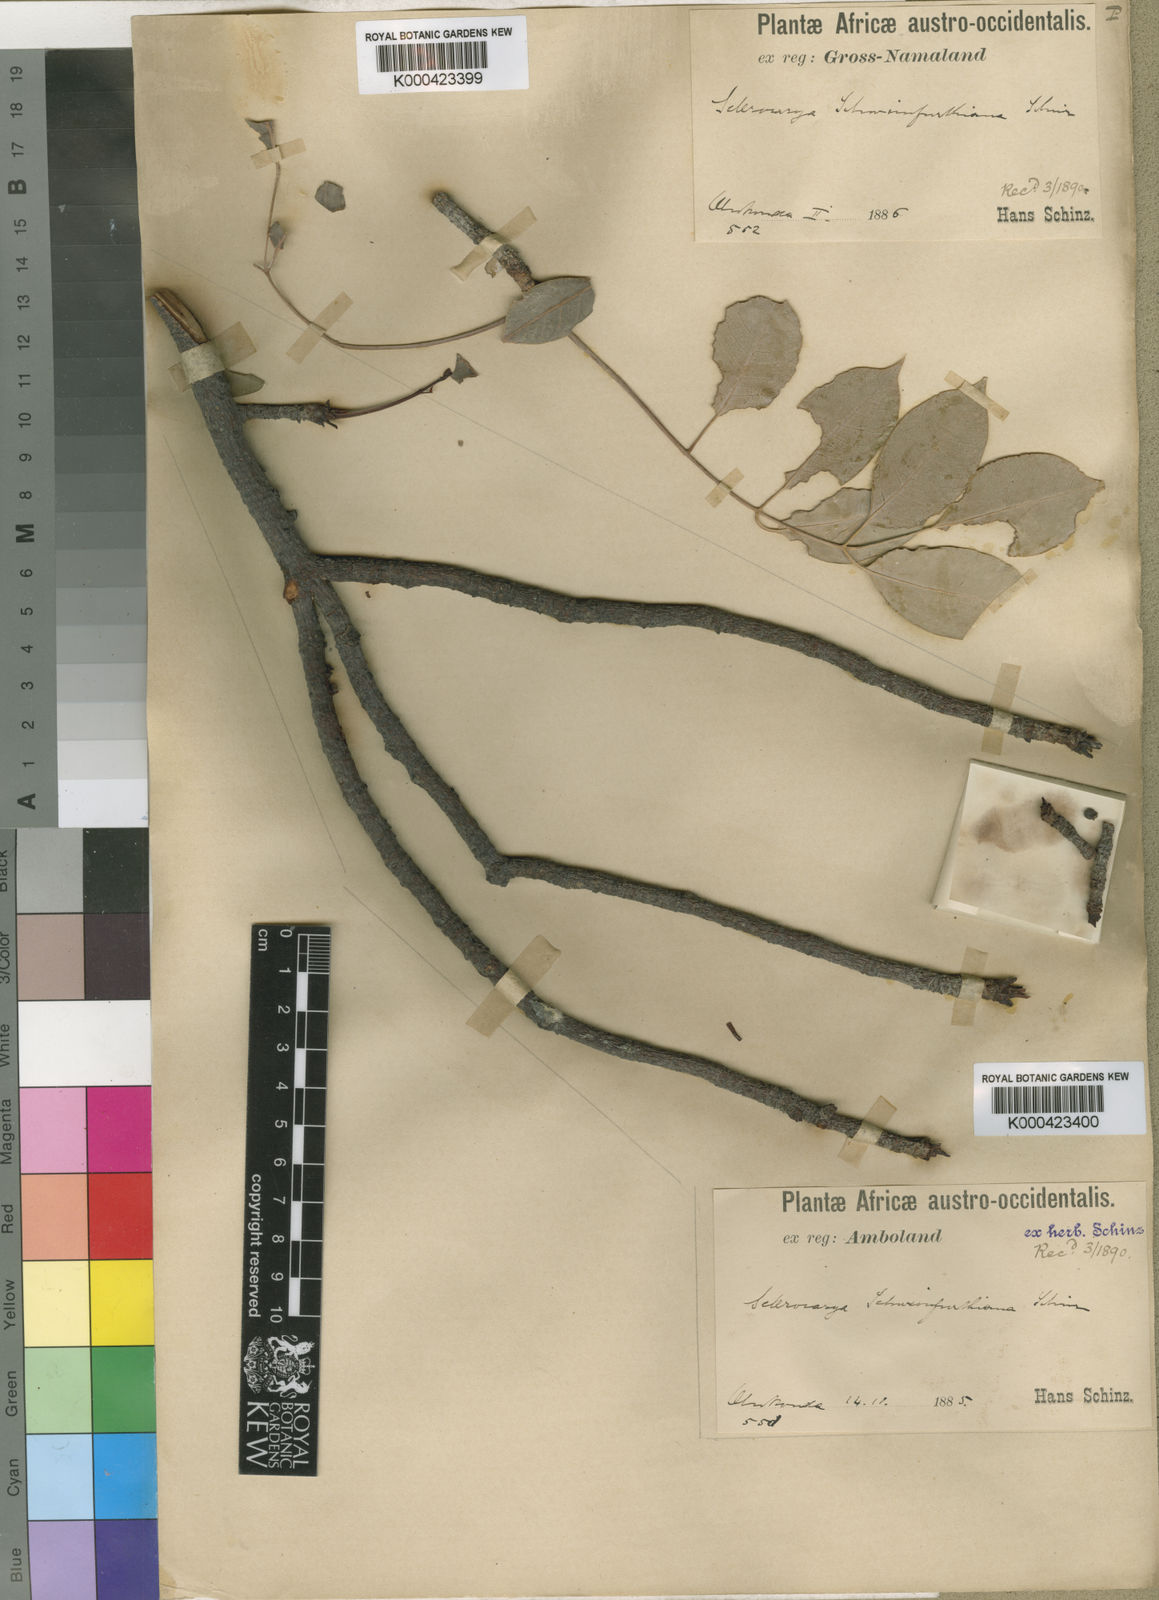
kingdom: Plantae
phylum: Tracheophyta
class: Magnoliopsida
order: Sapindales
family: Anacardiaceae
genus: Sclerocarya
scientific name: Sclerocarya birrea
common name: Marula
